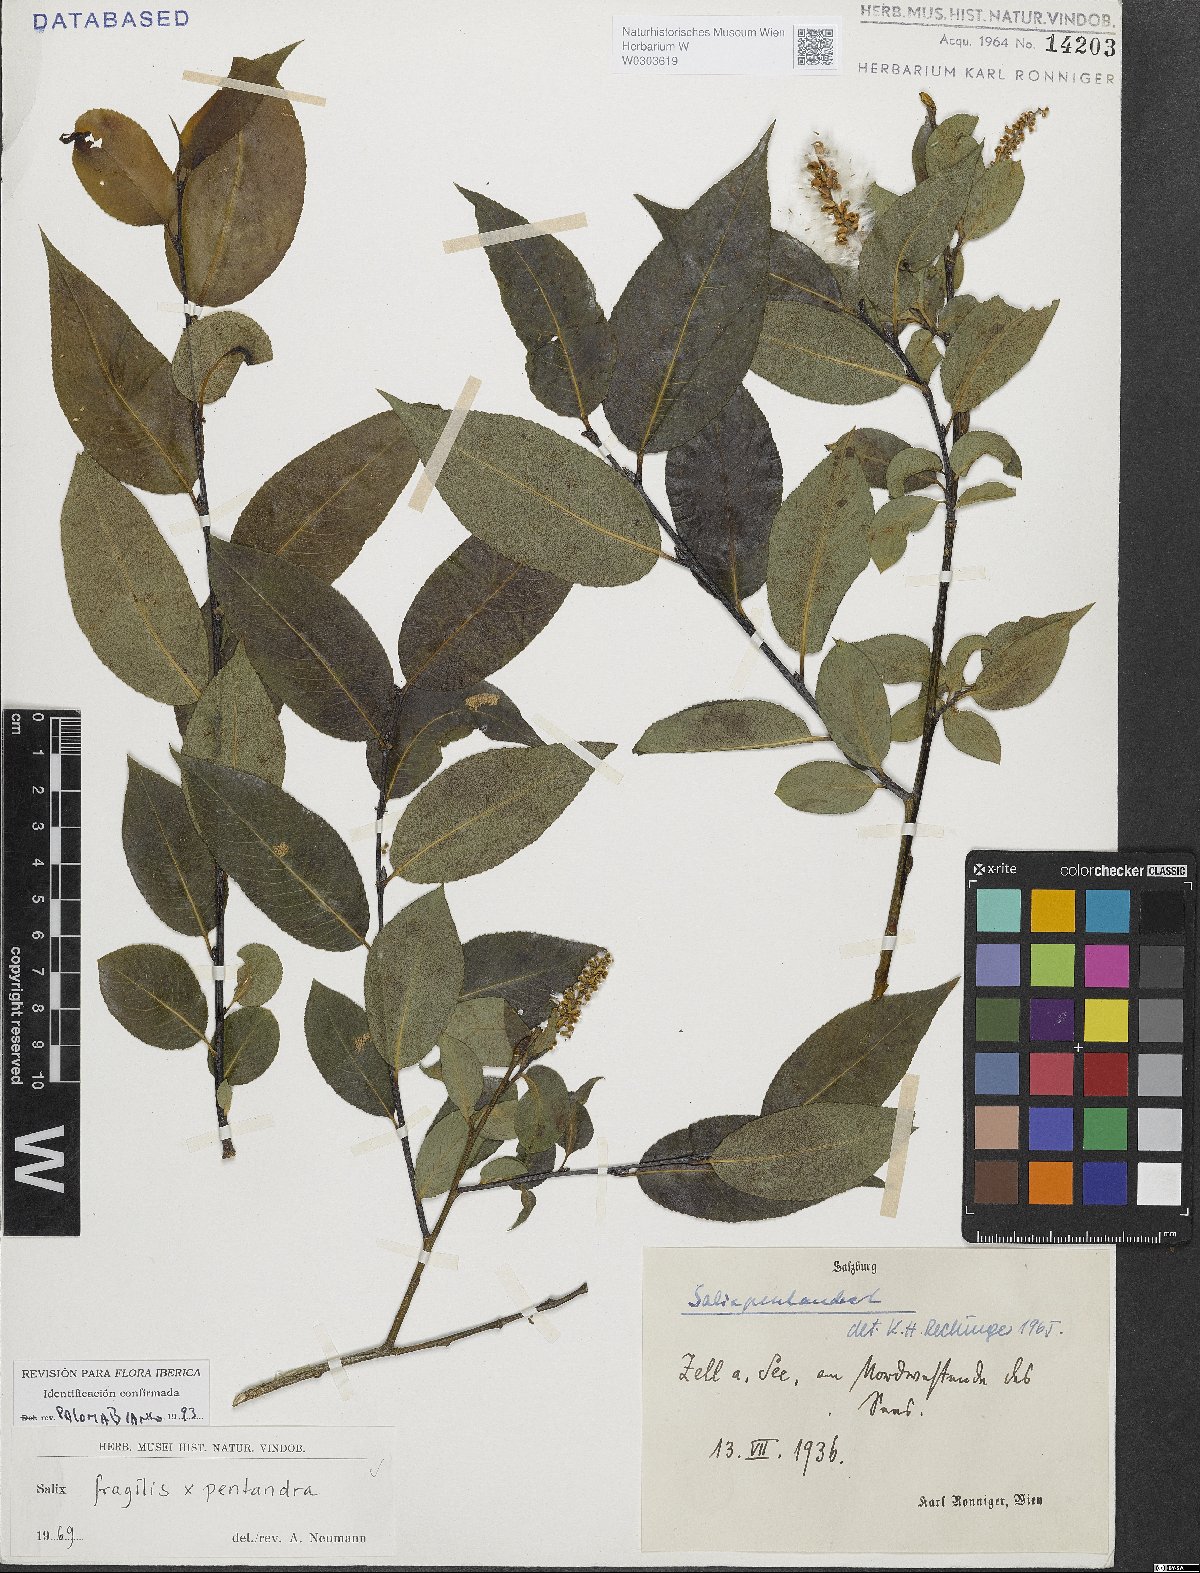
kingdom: Plantae
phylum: Tracheophyta
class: Magnoliopsida
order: Malpighiales
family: Salicaceae
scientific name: Salicaceae
